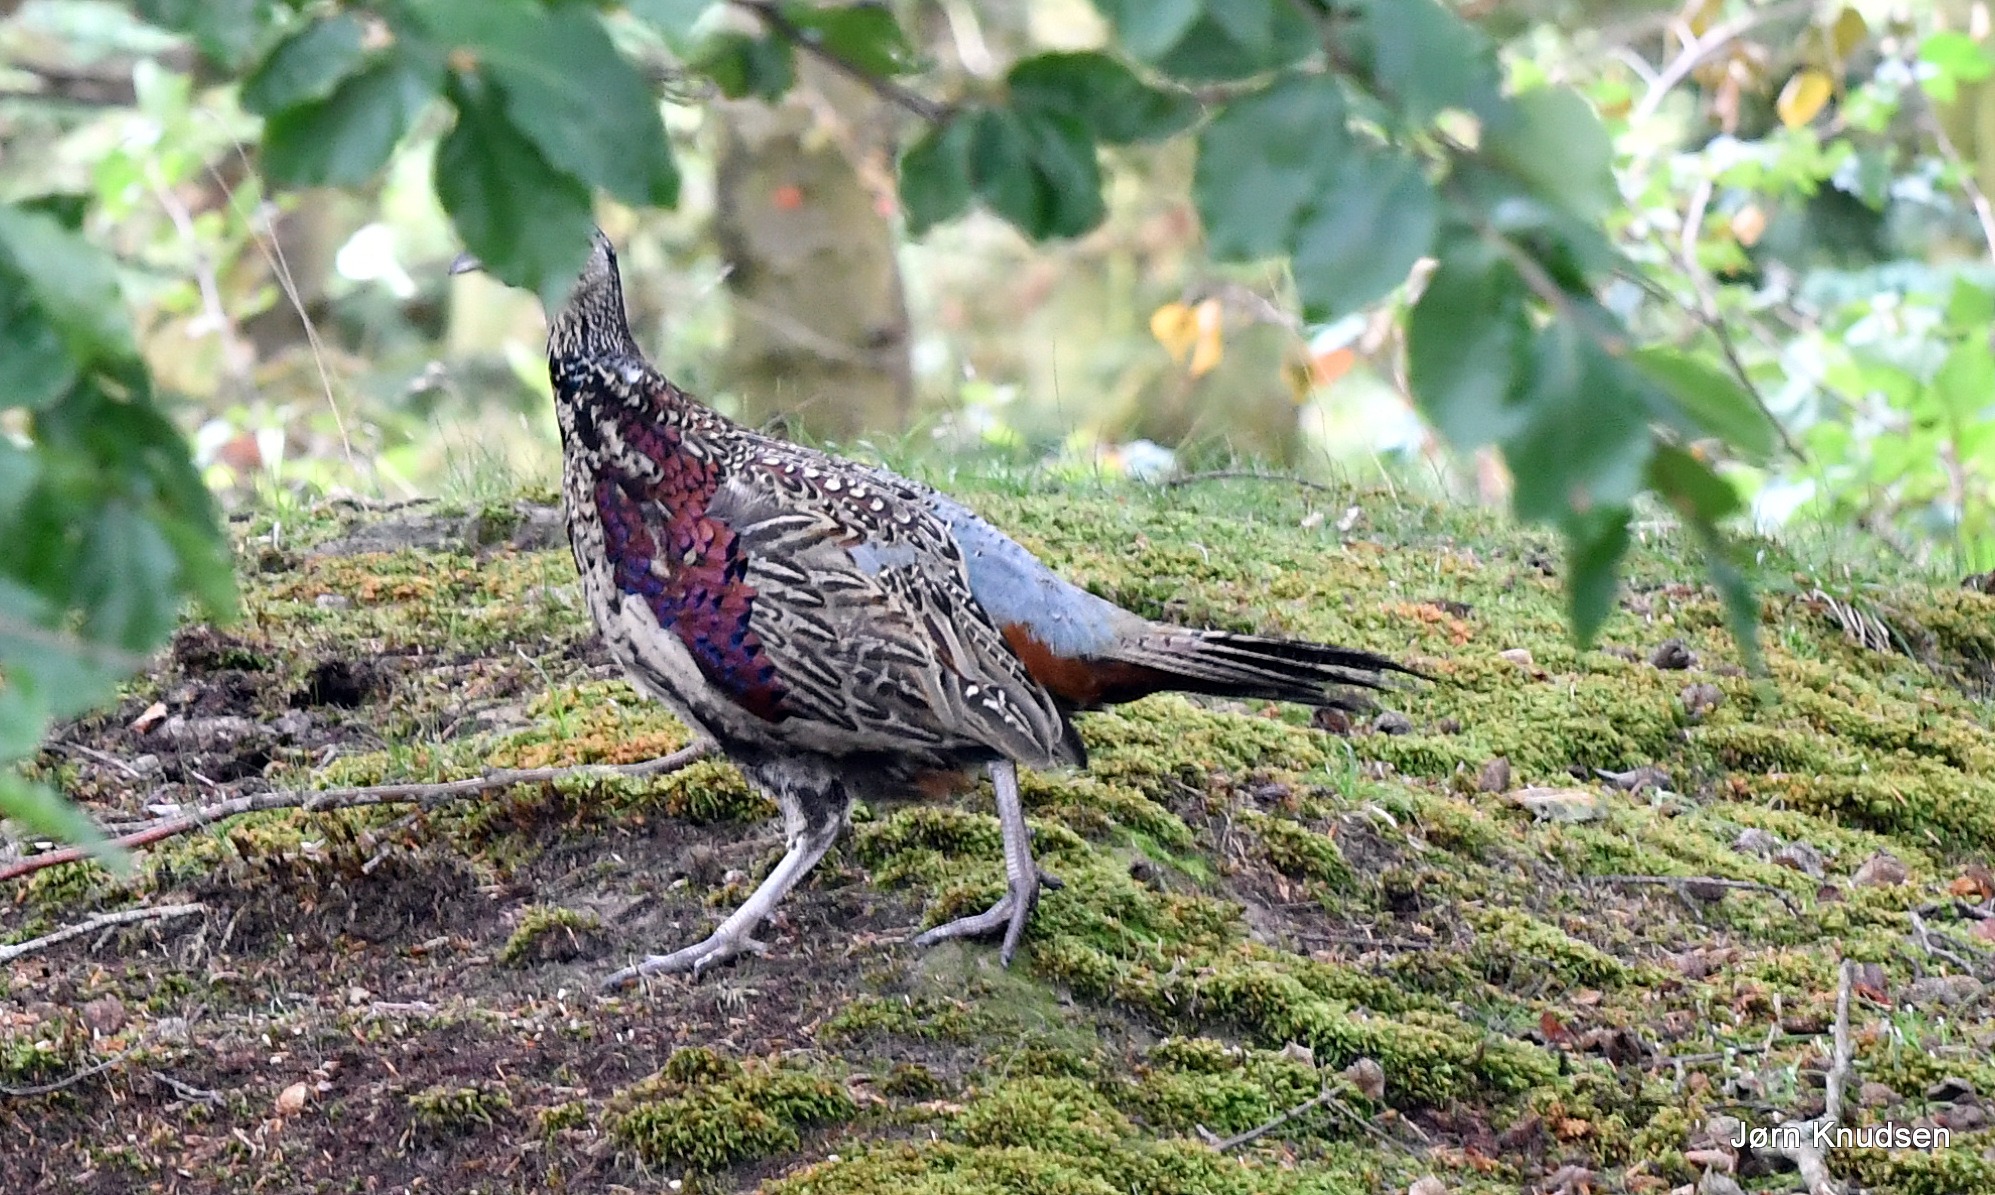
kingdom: Animalia
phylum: Chordata
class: Aves
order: Galliformes
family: Phasianidae
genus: Phasianus
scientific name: Phasianus colchicus
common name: Fasan
